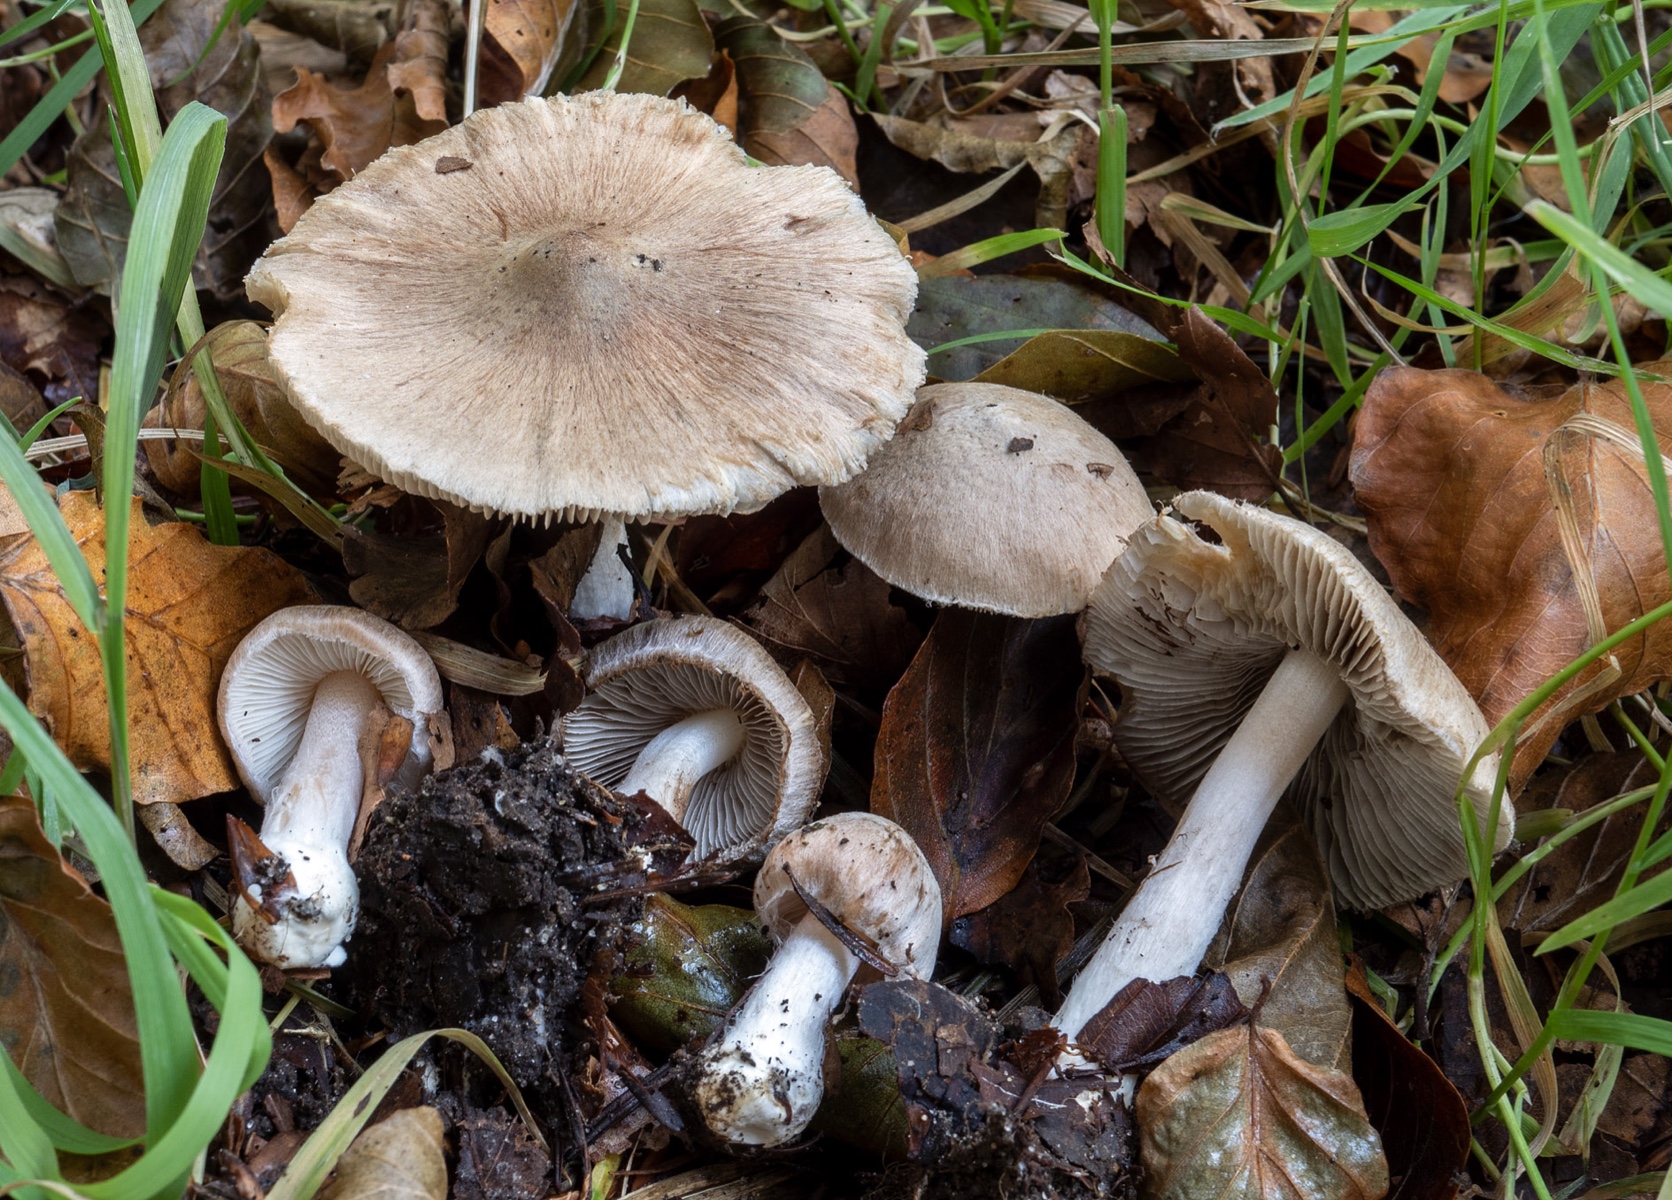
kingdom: Fungi
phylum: Basidiomycota
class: Agaricomycetes
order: Agaricales
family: Inocybaceae
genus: Inocybe
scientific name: Inocybe
